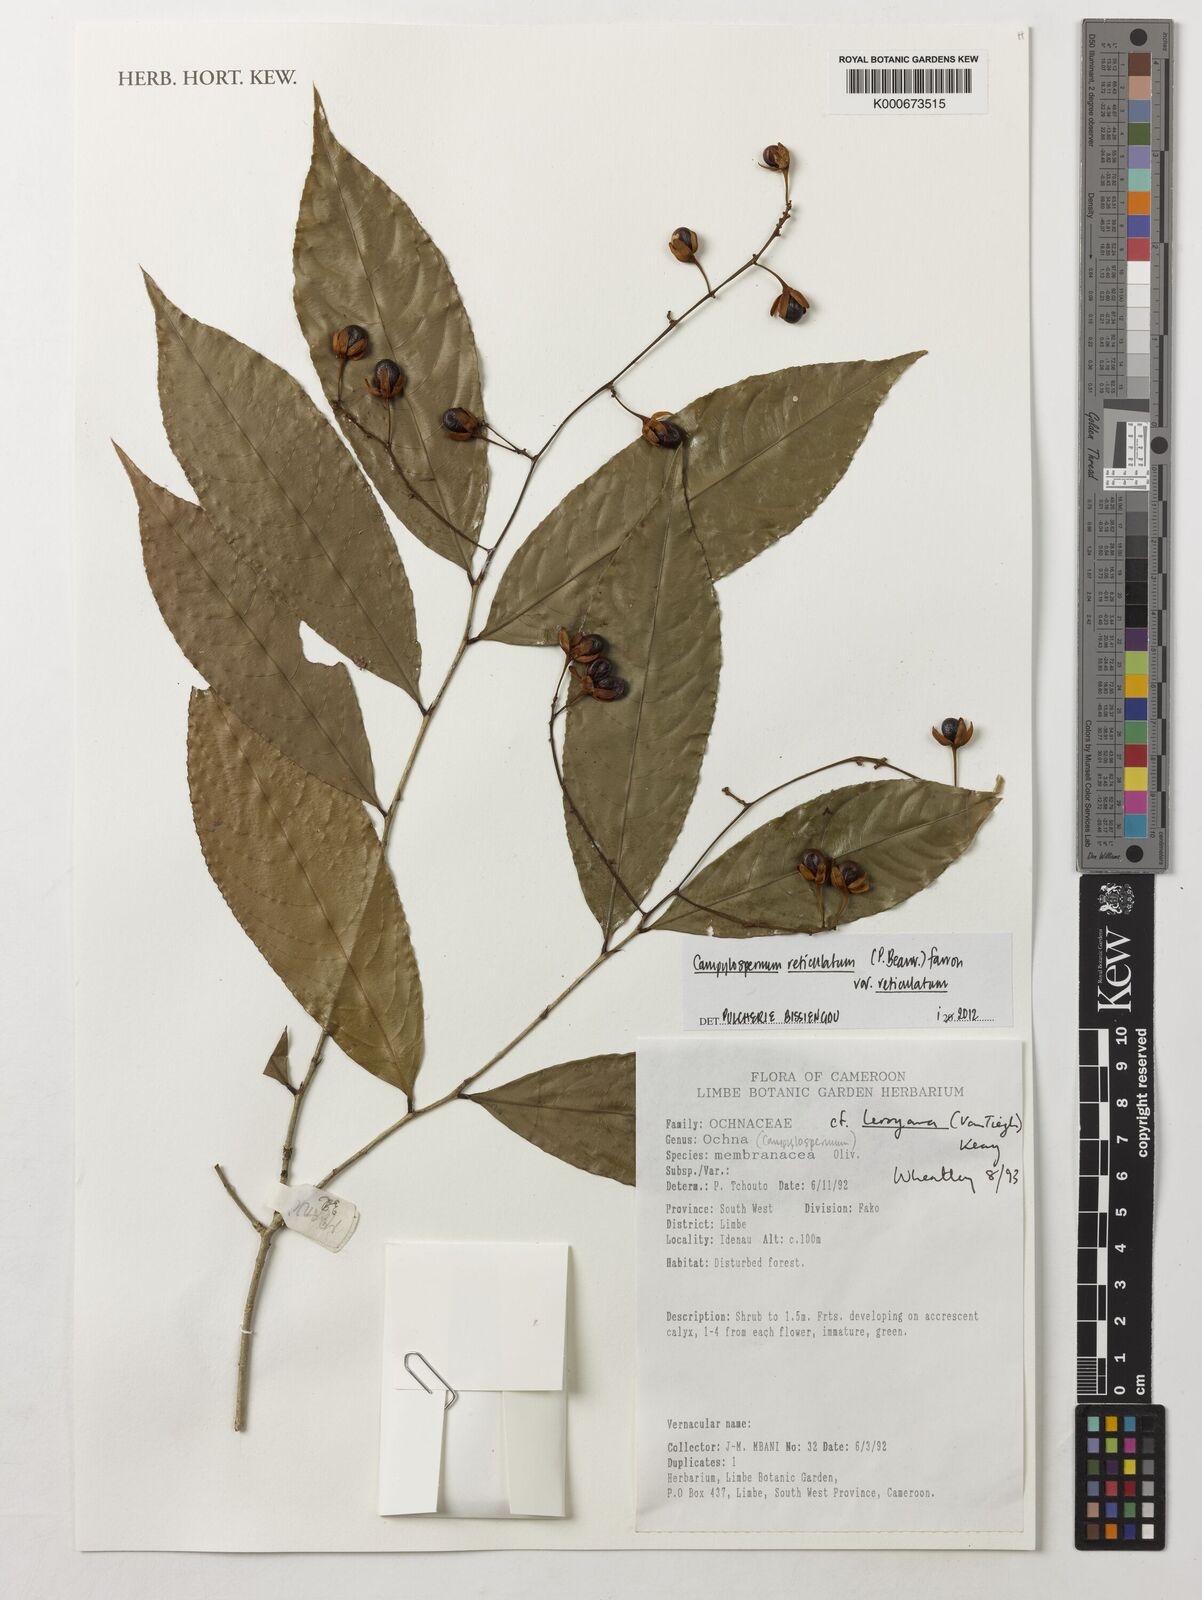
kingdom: Plantae
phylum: Tracheophyta
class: Magnoliopsida
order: Malpighiales
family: Ochnaceae
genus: Campylospermum
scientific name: Campylospermum reticulatum
